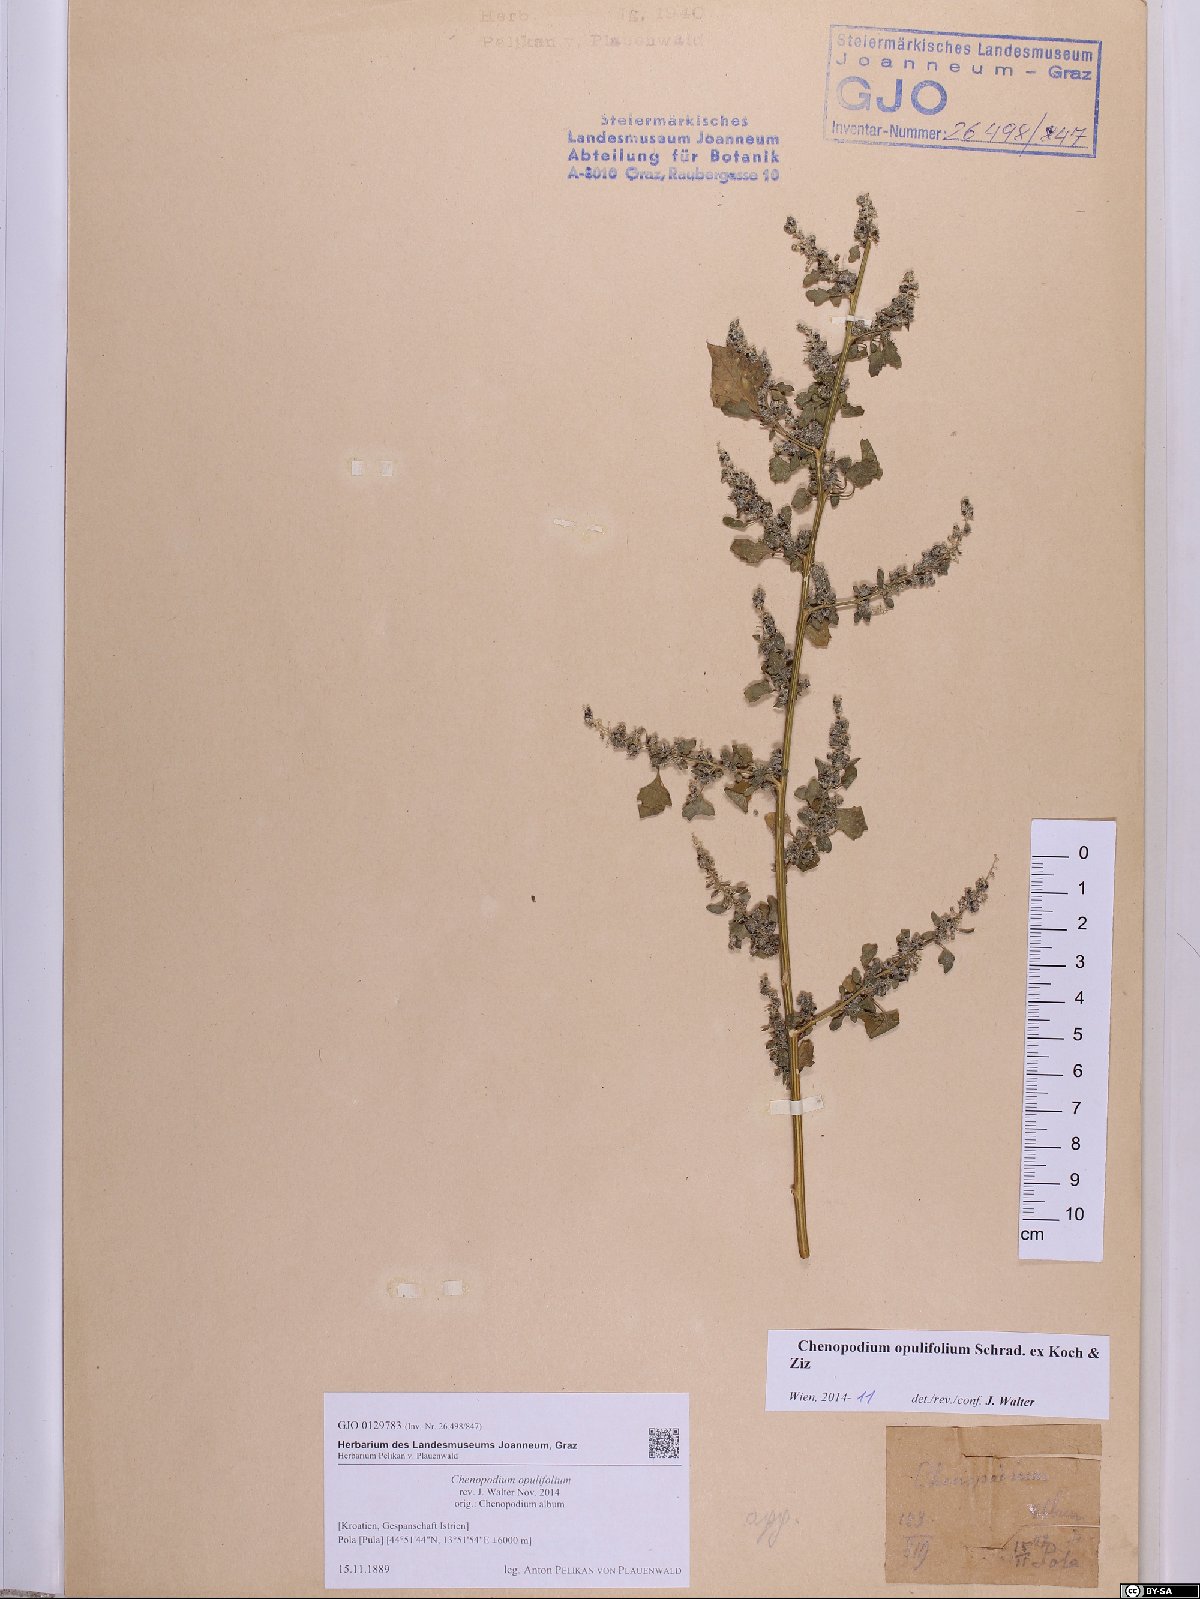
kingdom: Plantae
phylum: Tracheophyta
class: Magnoliopsida
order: Caryophyllales
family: Amaranthaceae
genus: Chenopodium
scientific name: Chenopodium opulifolium
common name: Grey goosefoot
